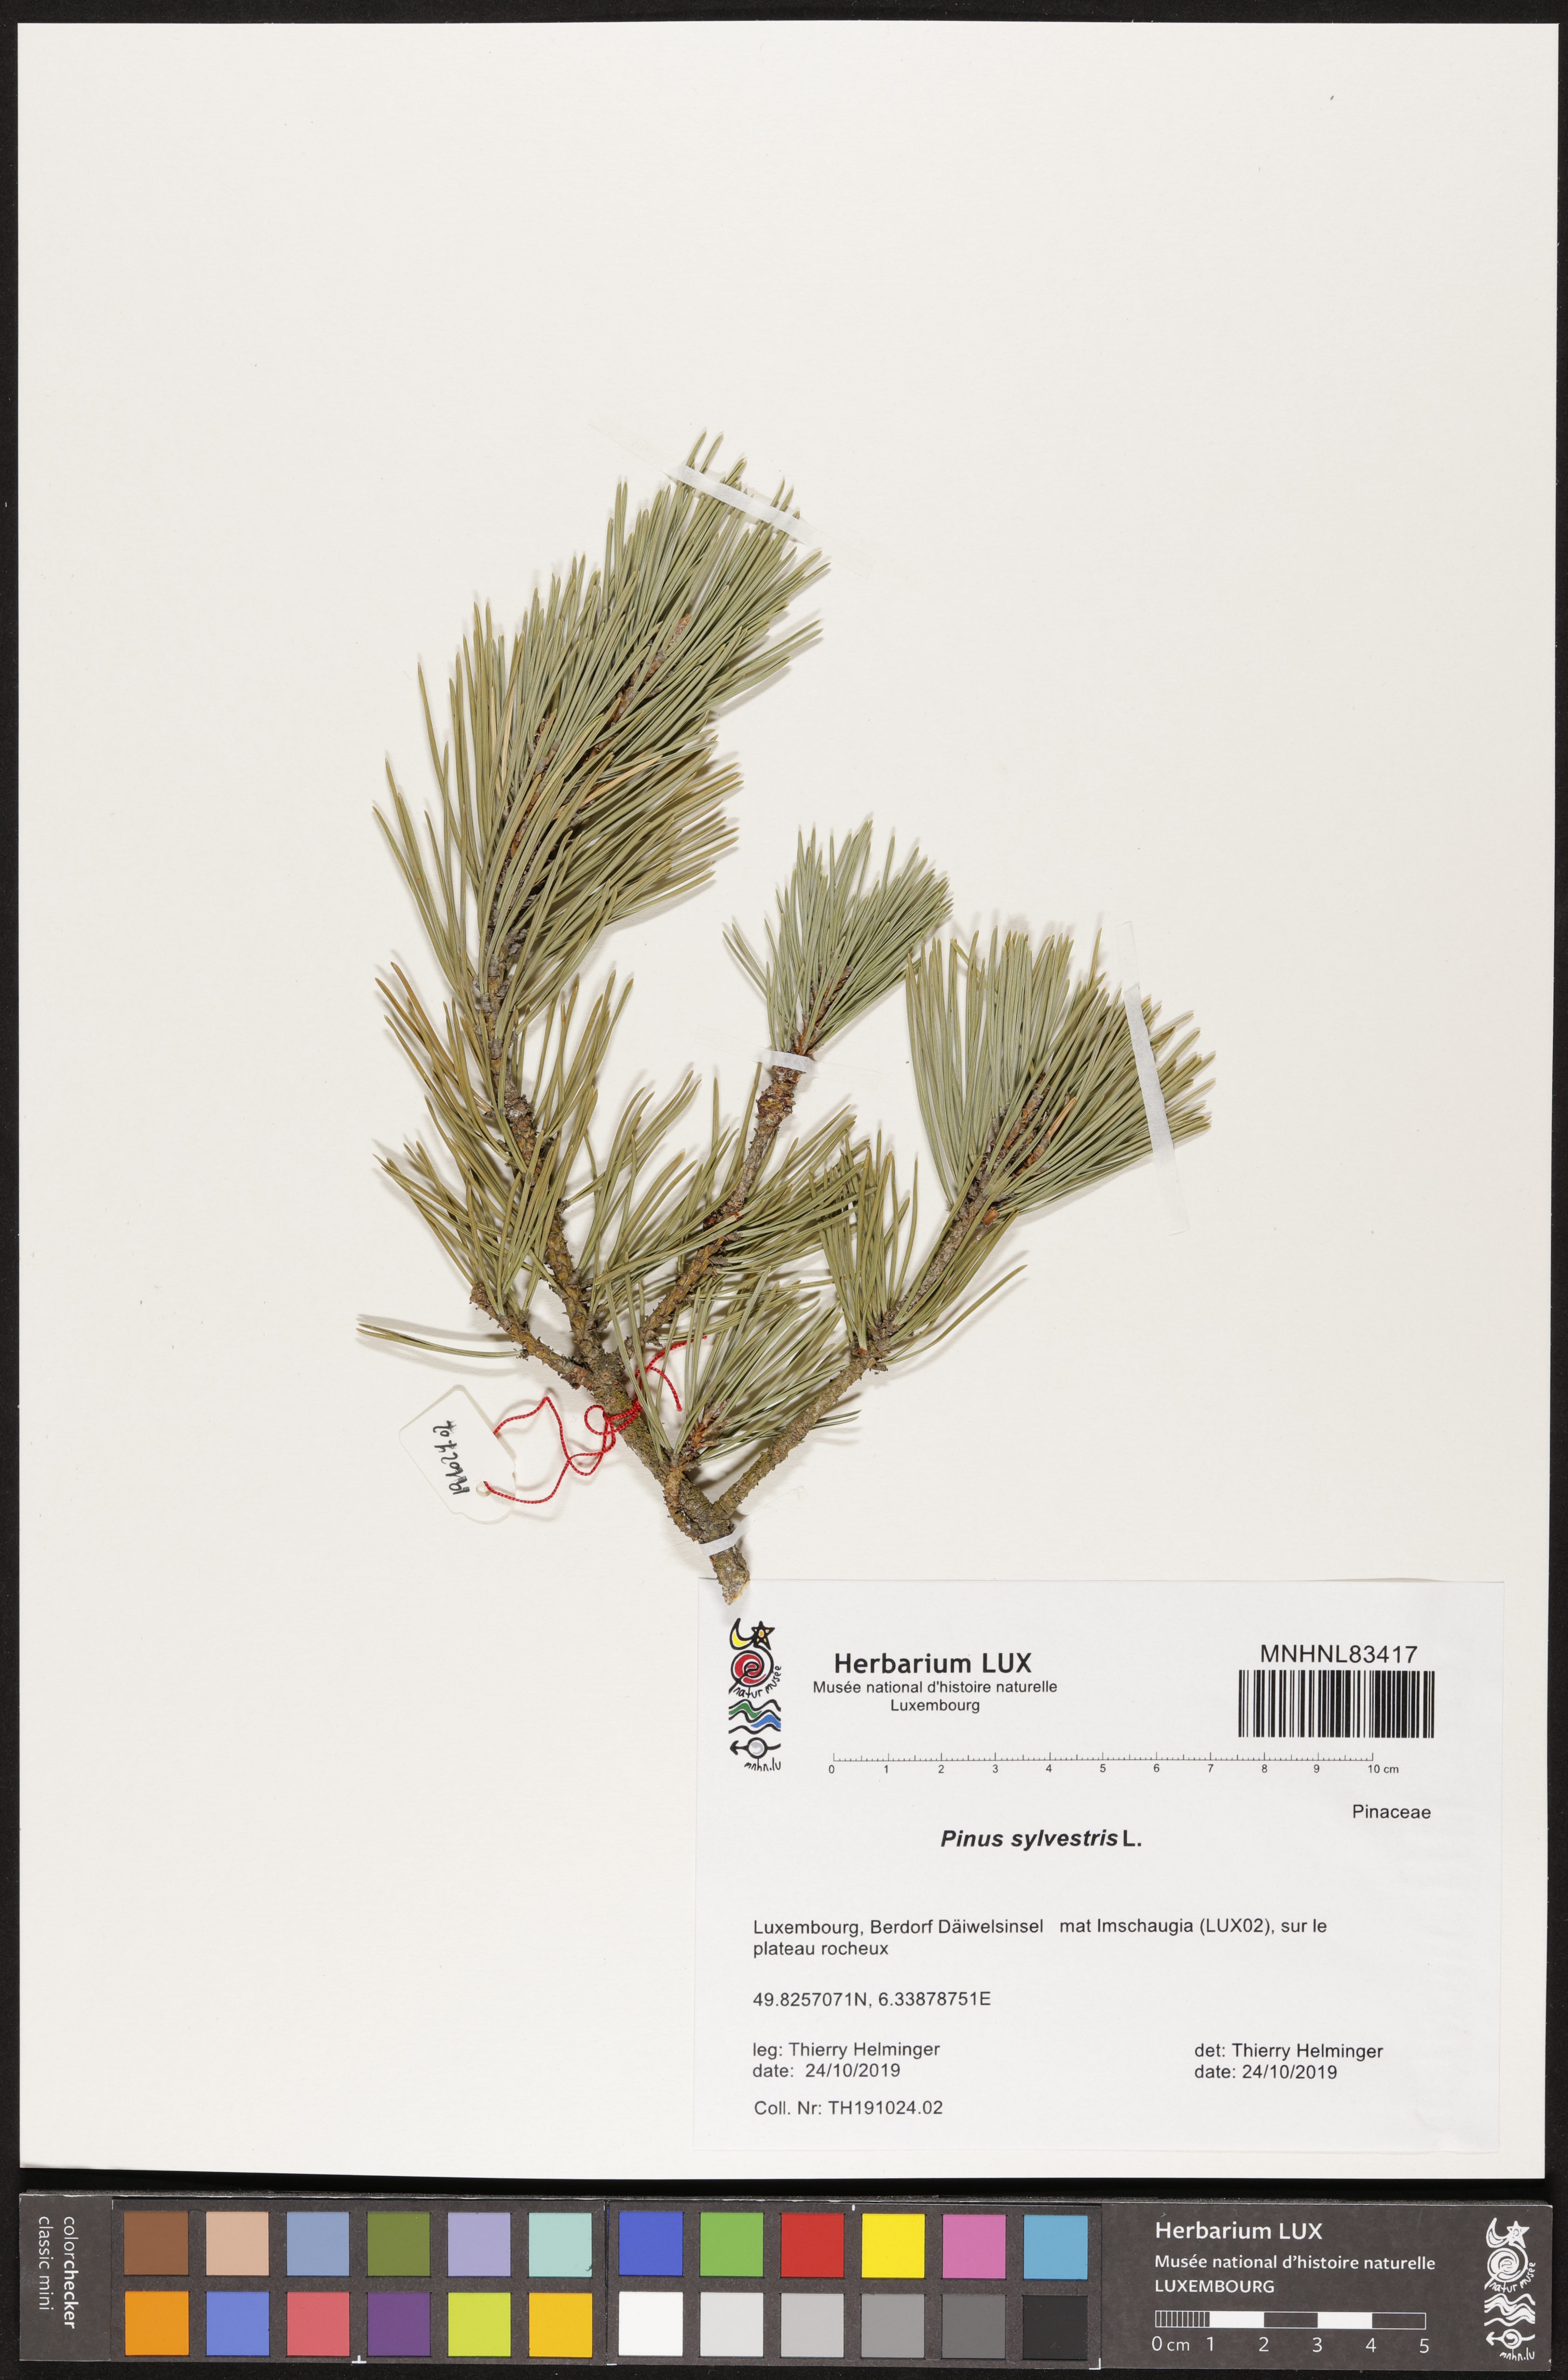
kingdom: Plantae
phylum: Tracheophyta
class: Pinopsida
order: Pinales
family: Pinaceae
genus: Pinus
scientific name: Pinus sylvestris
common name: Scots pine
